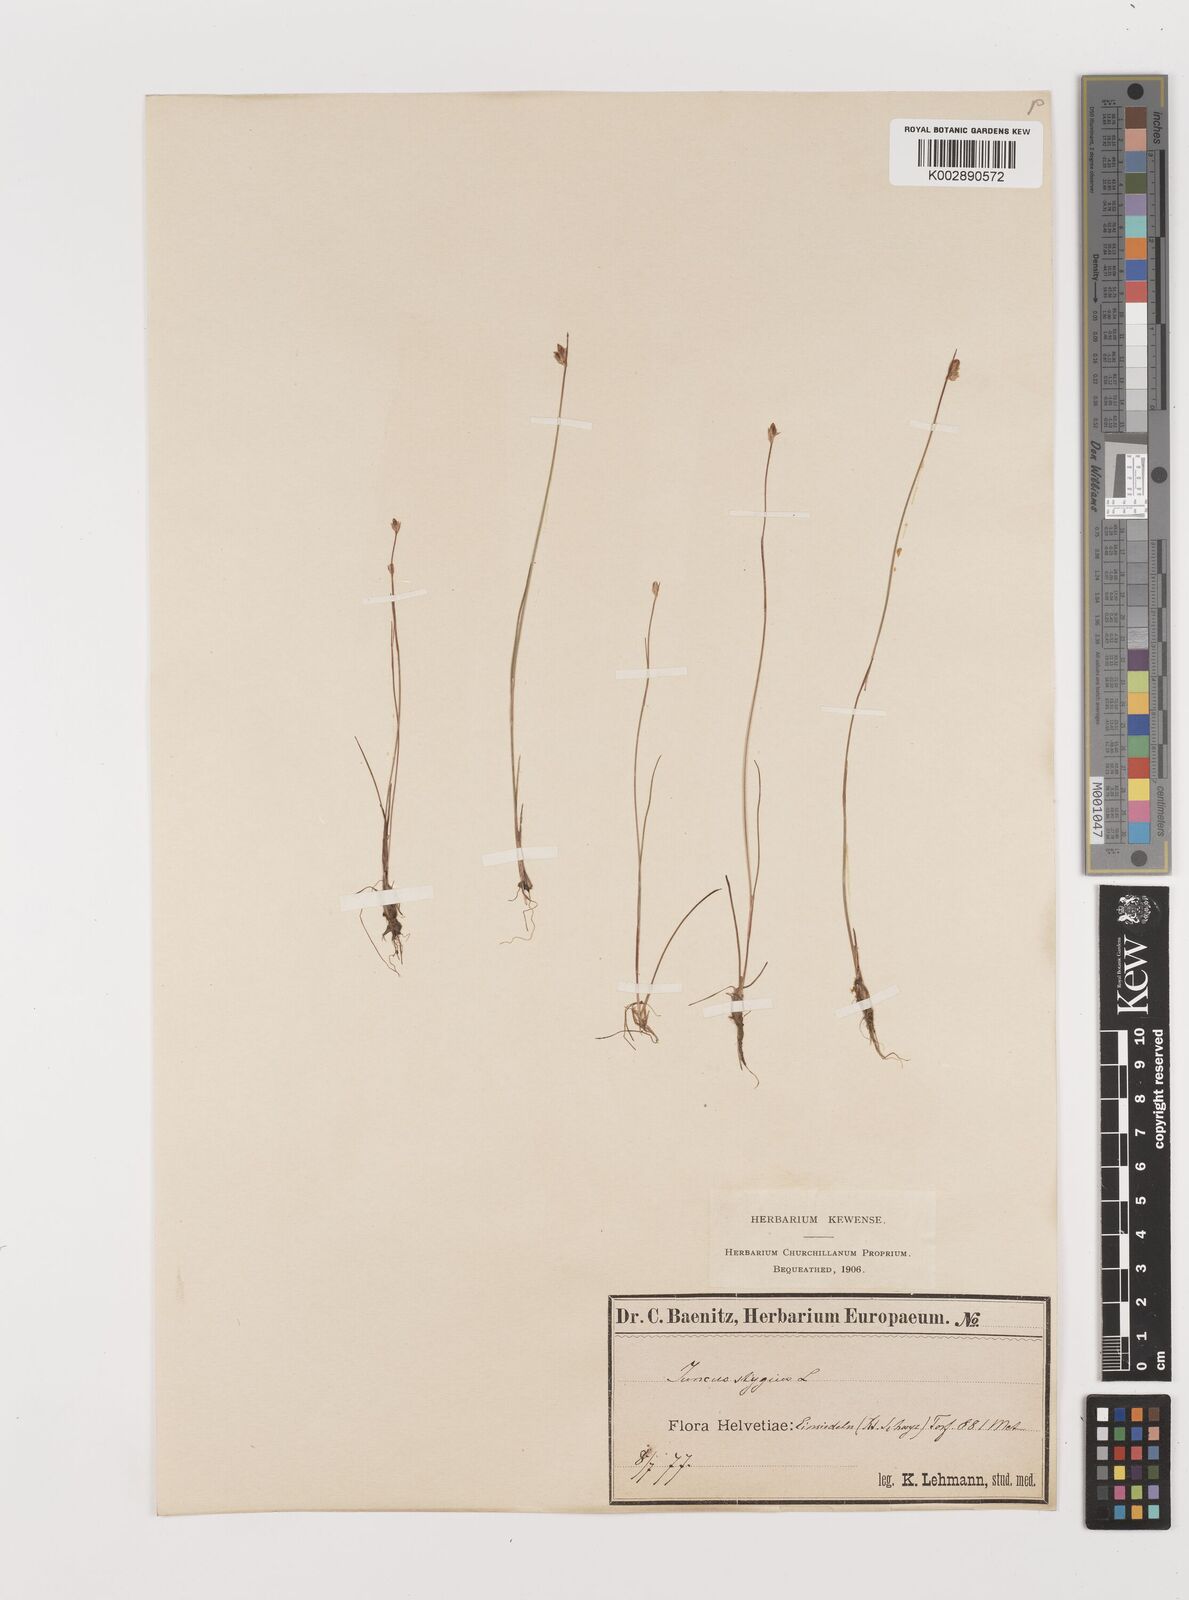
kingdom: Plantae
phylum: Tracheophyta
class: Liliopsida
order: Poales
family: Juncaceae
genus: Juncus
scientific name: Juncus stygius
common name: Bog rush
